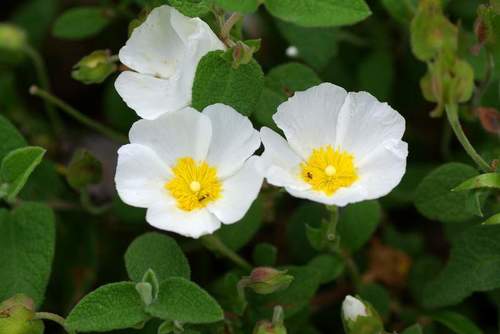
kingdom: Plantae
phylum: Tracheophyta
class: Magnoliopsida
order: Malvales
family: Cistaceae
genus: Cistus
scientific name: Cistus salviifolius
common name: Salvia cistus
